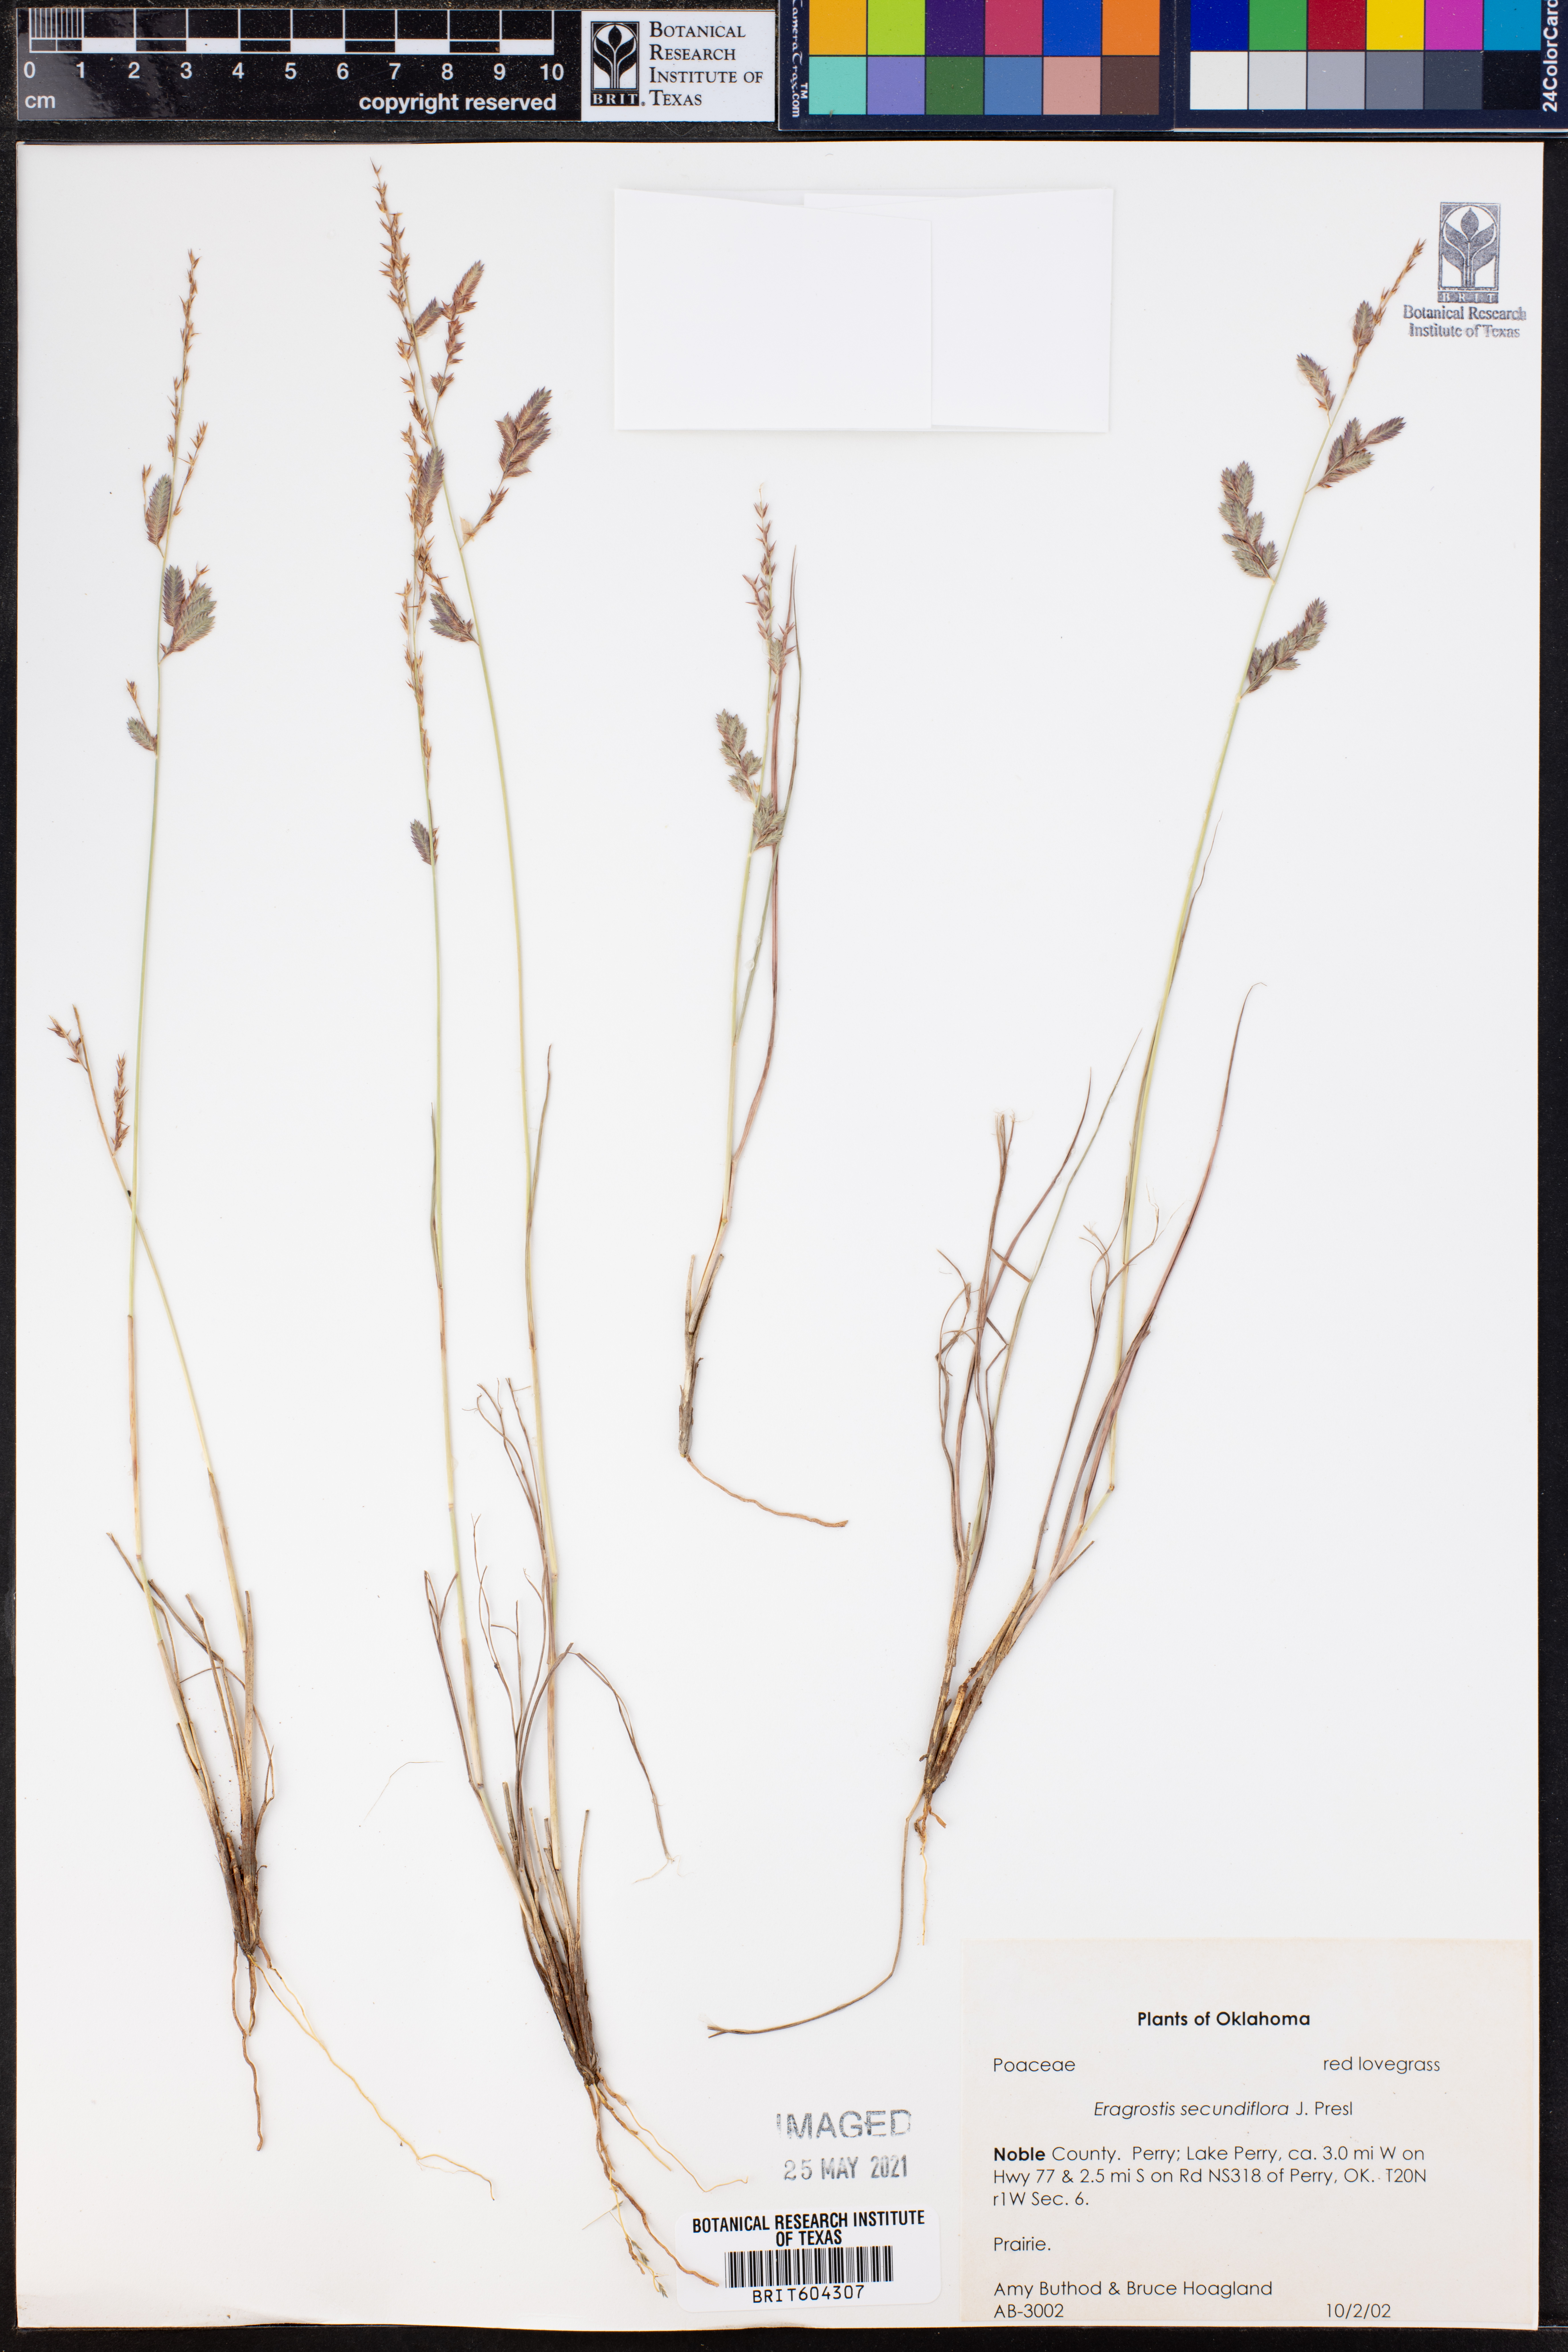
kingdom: Plantae
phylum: Tracheophyta
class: Liliopsida
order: Poales
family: Poaceae
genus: Eragrostis
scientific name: Eragrostis secundiflora
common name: Red love grass
